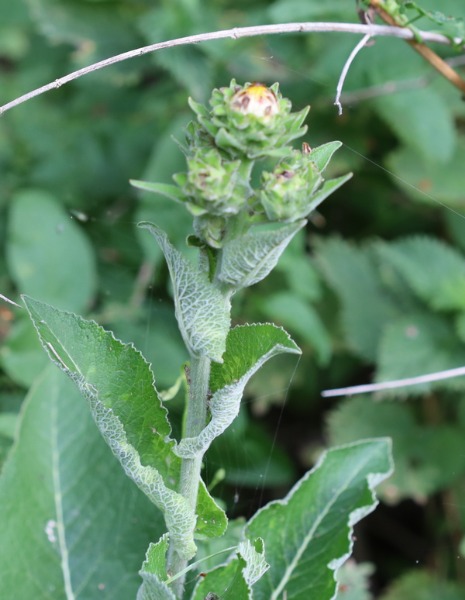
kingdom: Plantae
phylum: Tracheophyta
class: Magnoliopsida
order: Asterales
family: Asteraceae
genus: Inula
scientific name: Inula helenium
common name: Læge-alant
